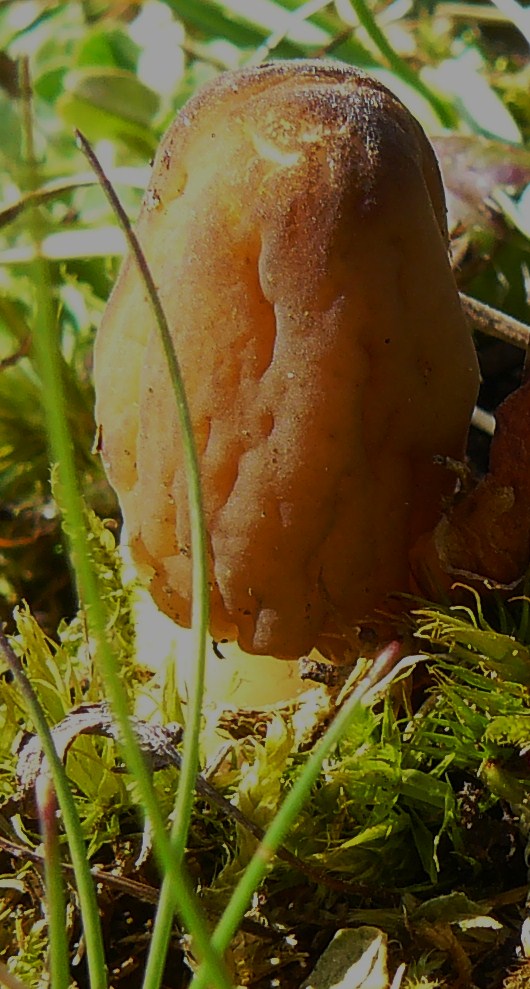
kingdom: Fungi
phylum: Ascomycota
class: Pezizomycetes
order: Pezizales
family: Morchellaceae
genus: Verpa
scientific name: Verpa conica
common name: glat klokkemorkel
